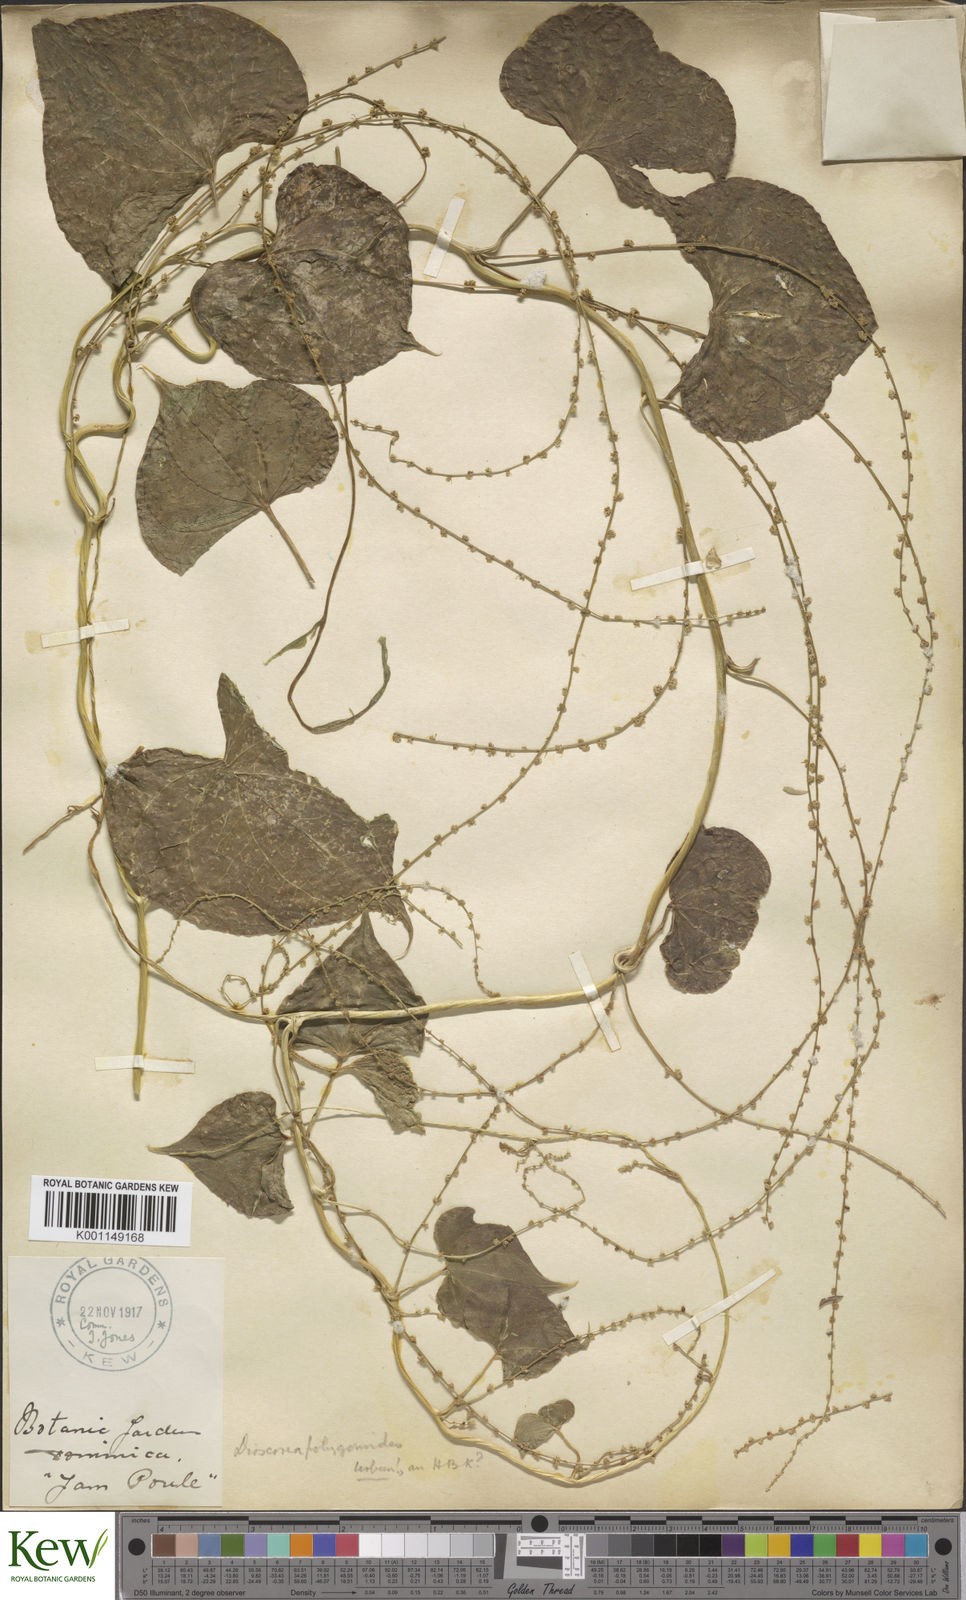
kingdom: Plantae
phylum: Tracheophyta
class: Liliopsida
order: Dioscoreales
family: Dioscoreaceae
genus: Dioscorea
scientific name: Dioscorea polygonoides
